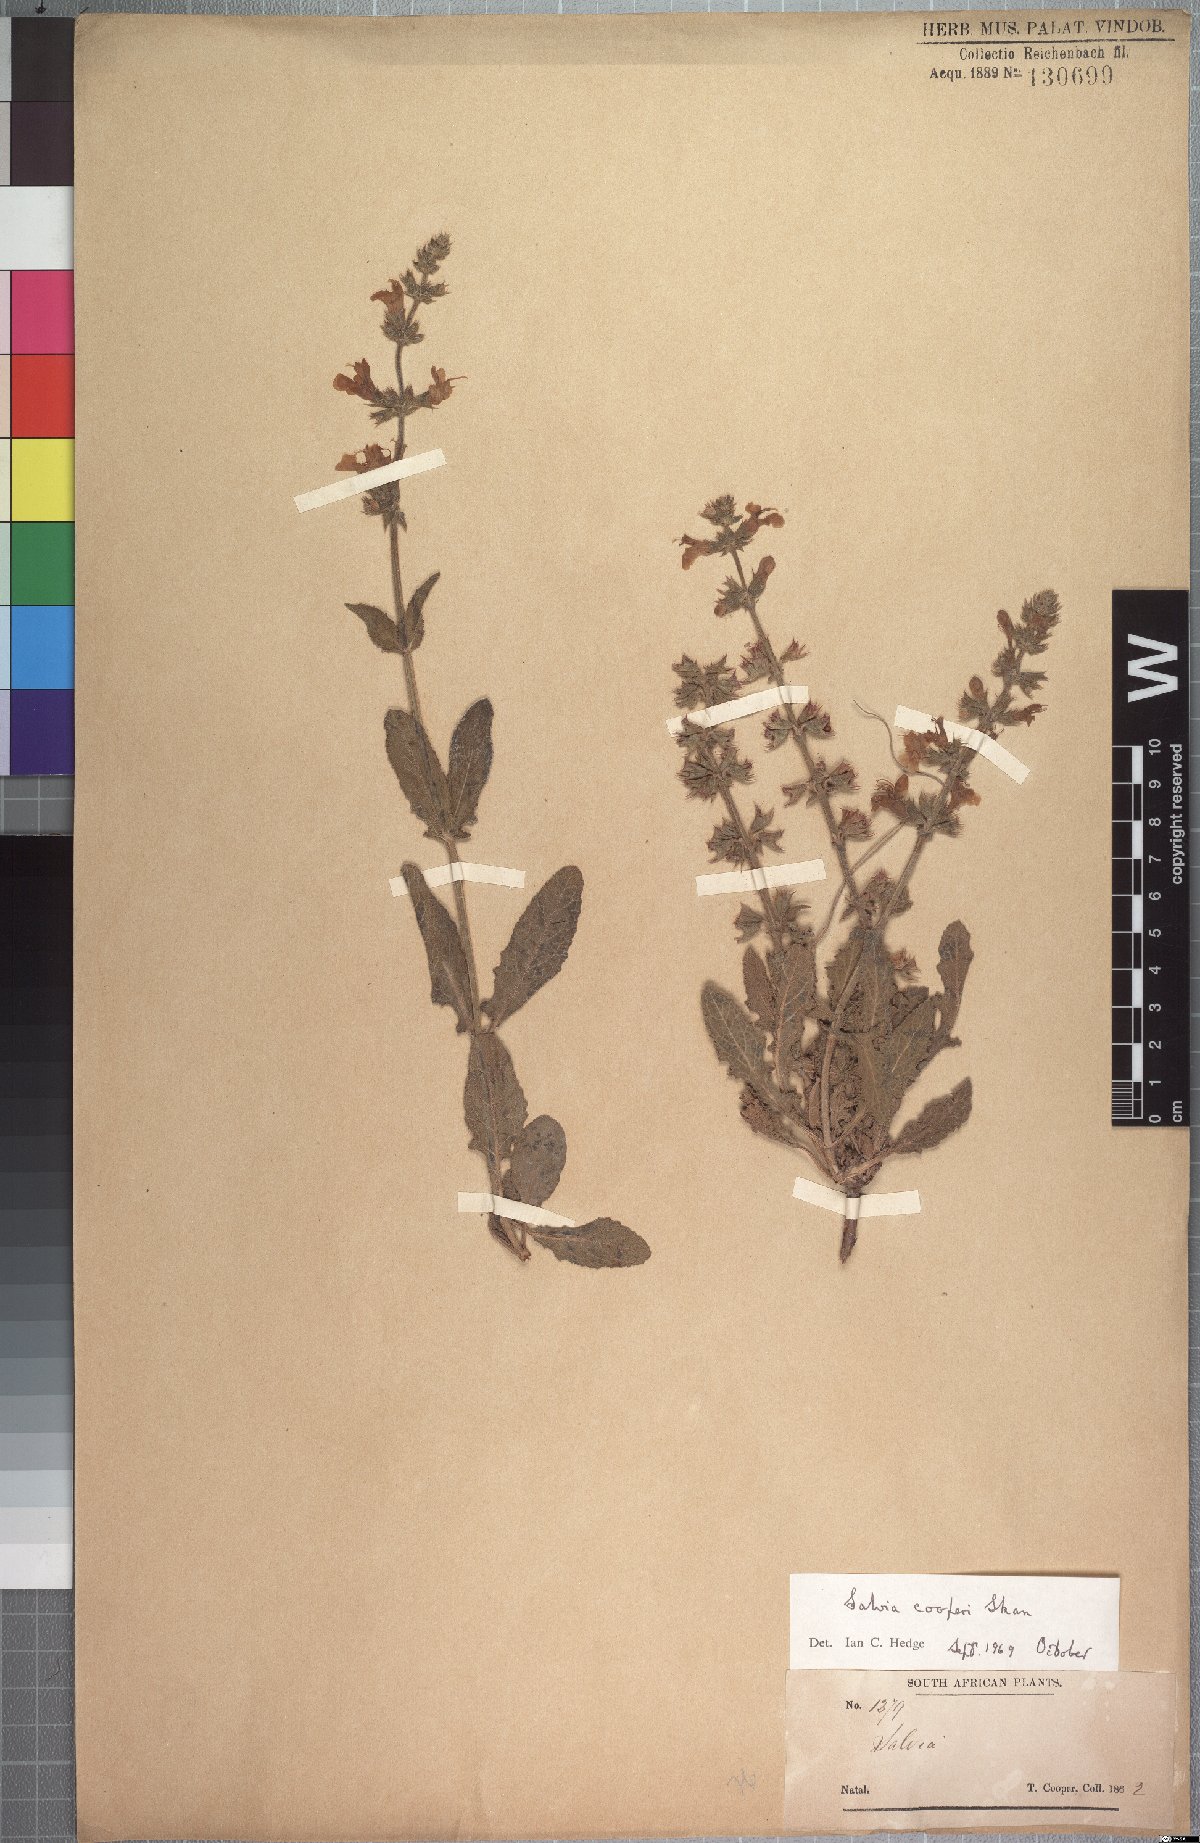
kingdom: Plantae
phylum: Tracheophyta
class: Magnoliopsida
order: Lamiales
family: Lamiaceae
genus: Salvia
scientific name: Salvia repens
